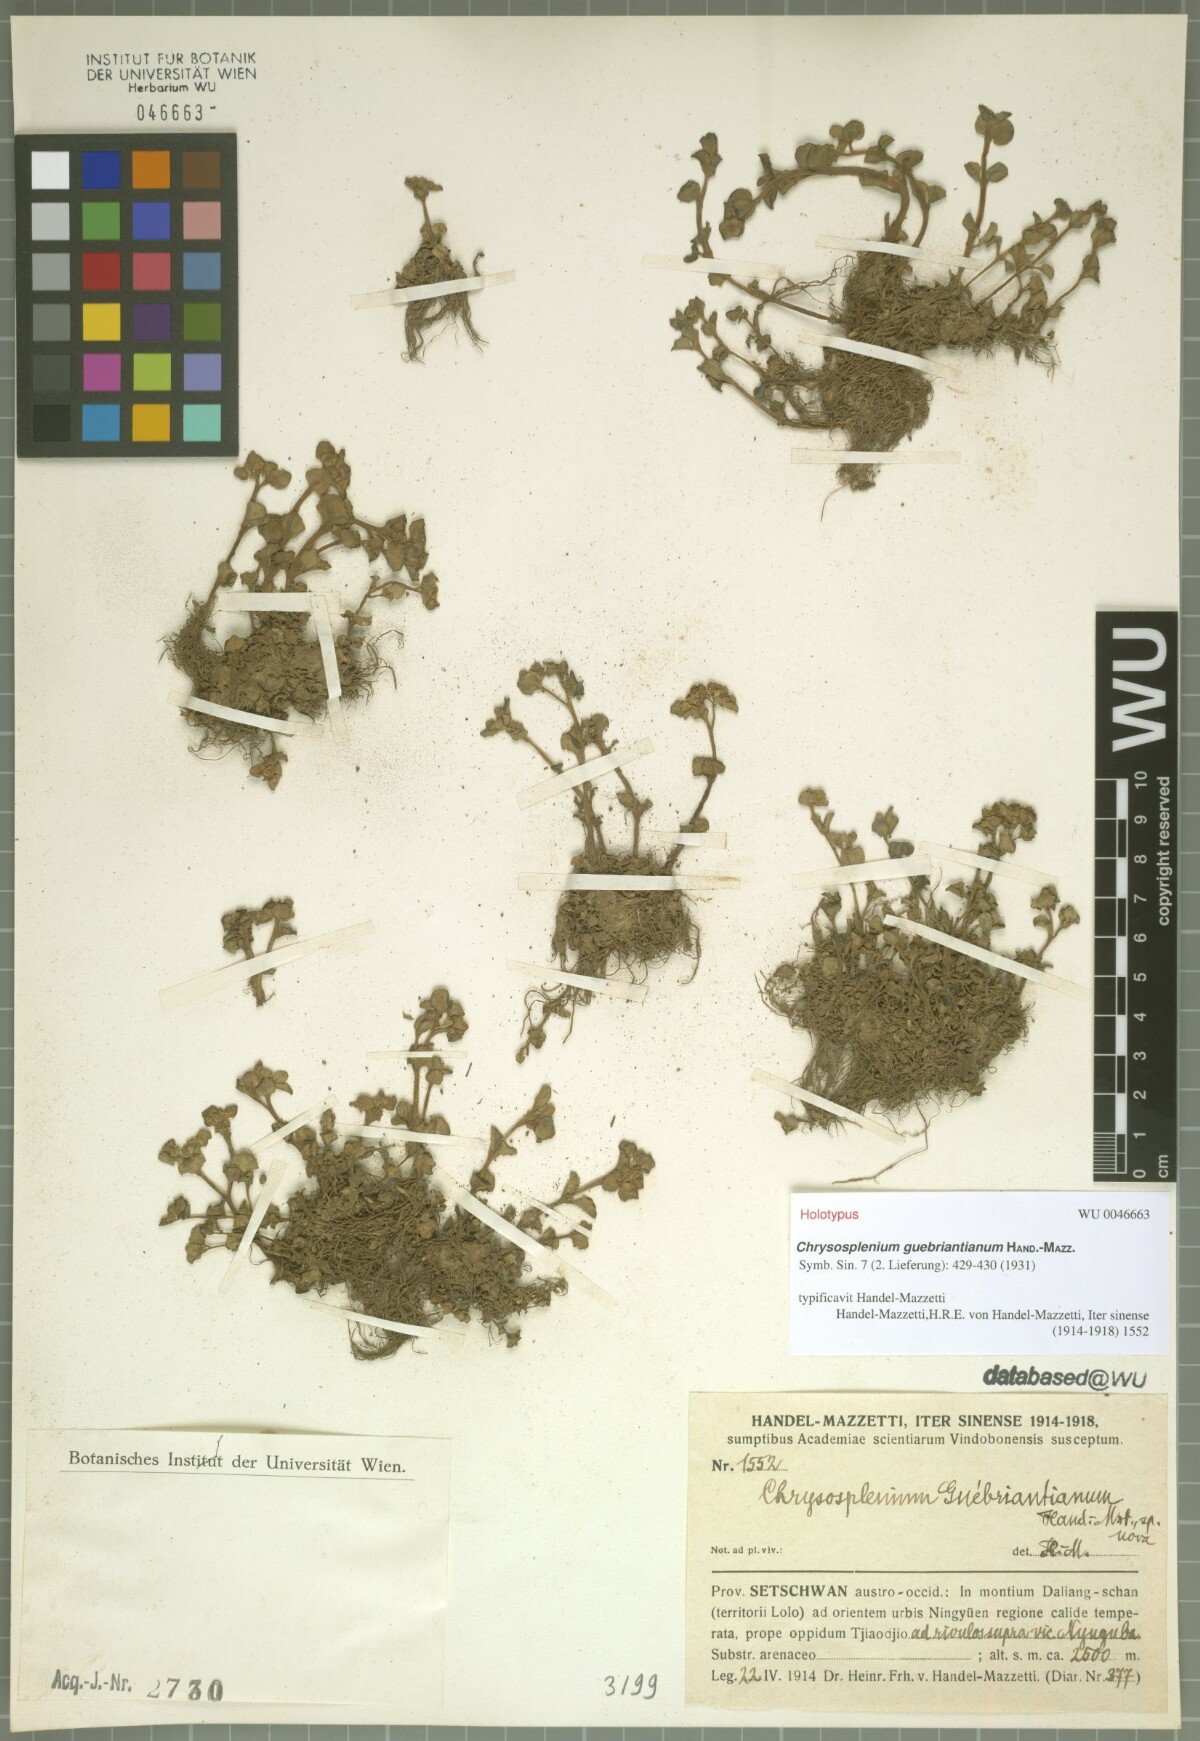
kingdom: Plantae
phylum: Tracheophyta
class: Magnoliopsida
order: Saxifragales
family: Saxifragaceae
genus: Chrysosplenium
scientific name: Chrysosplenium nepalense
